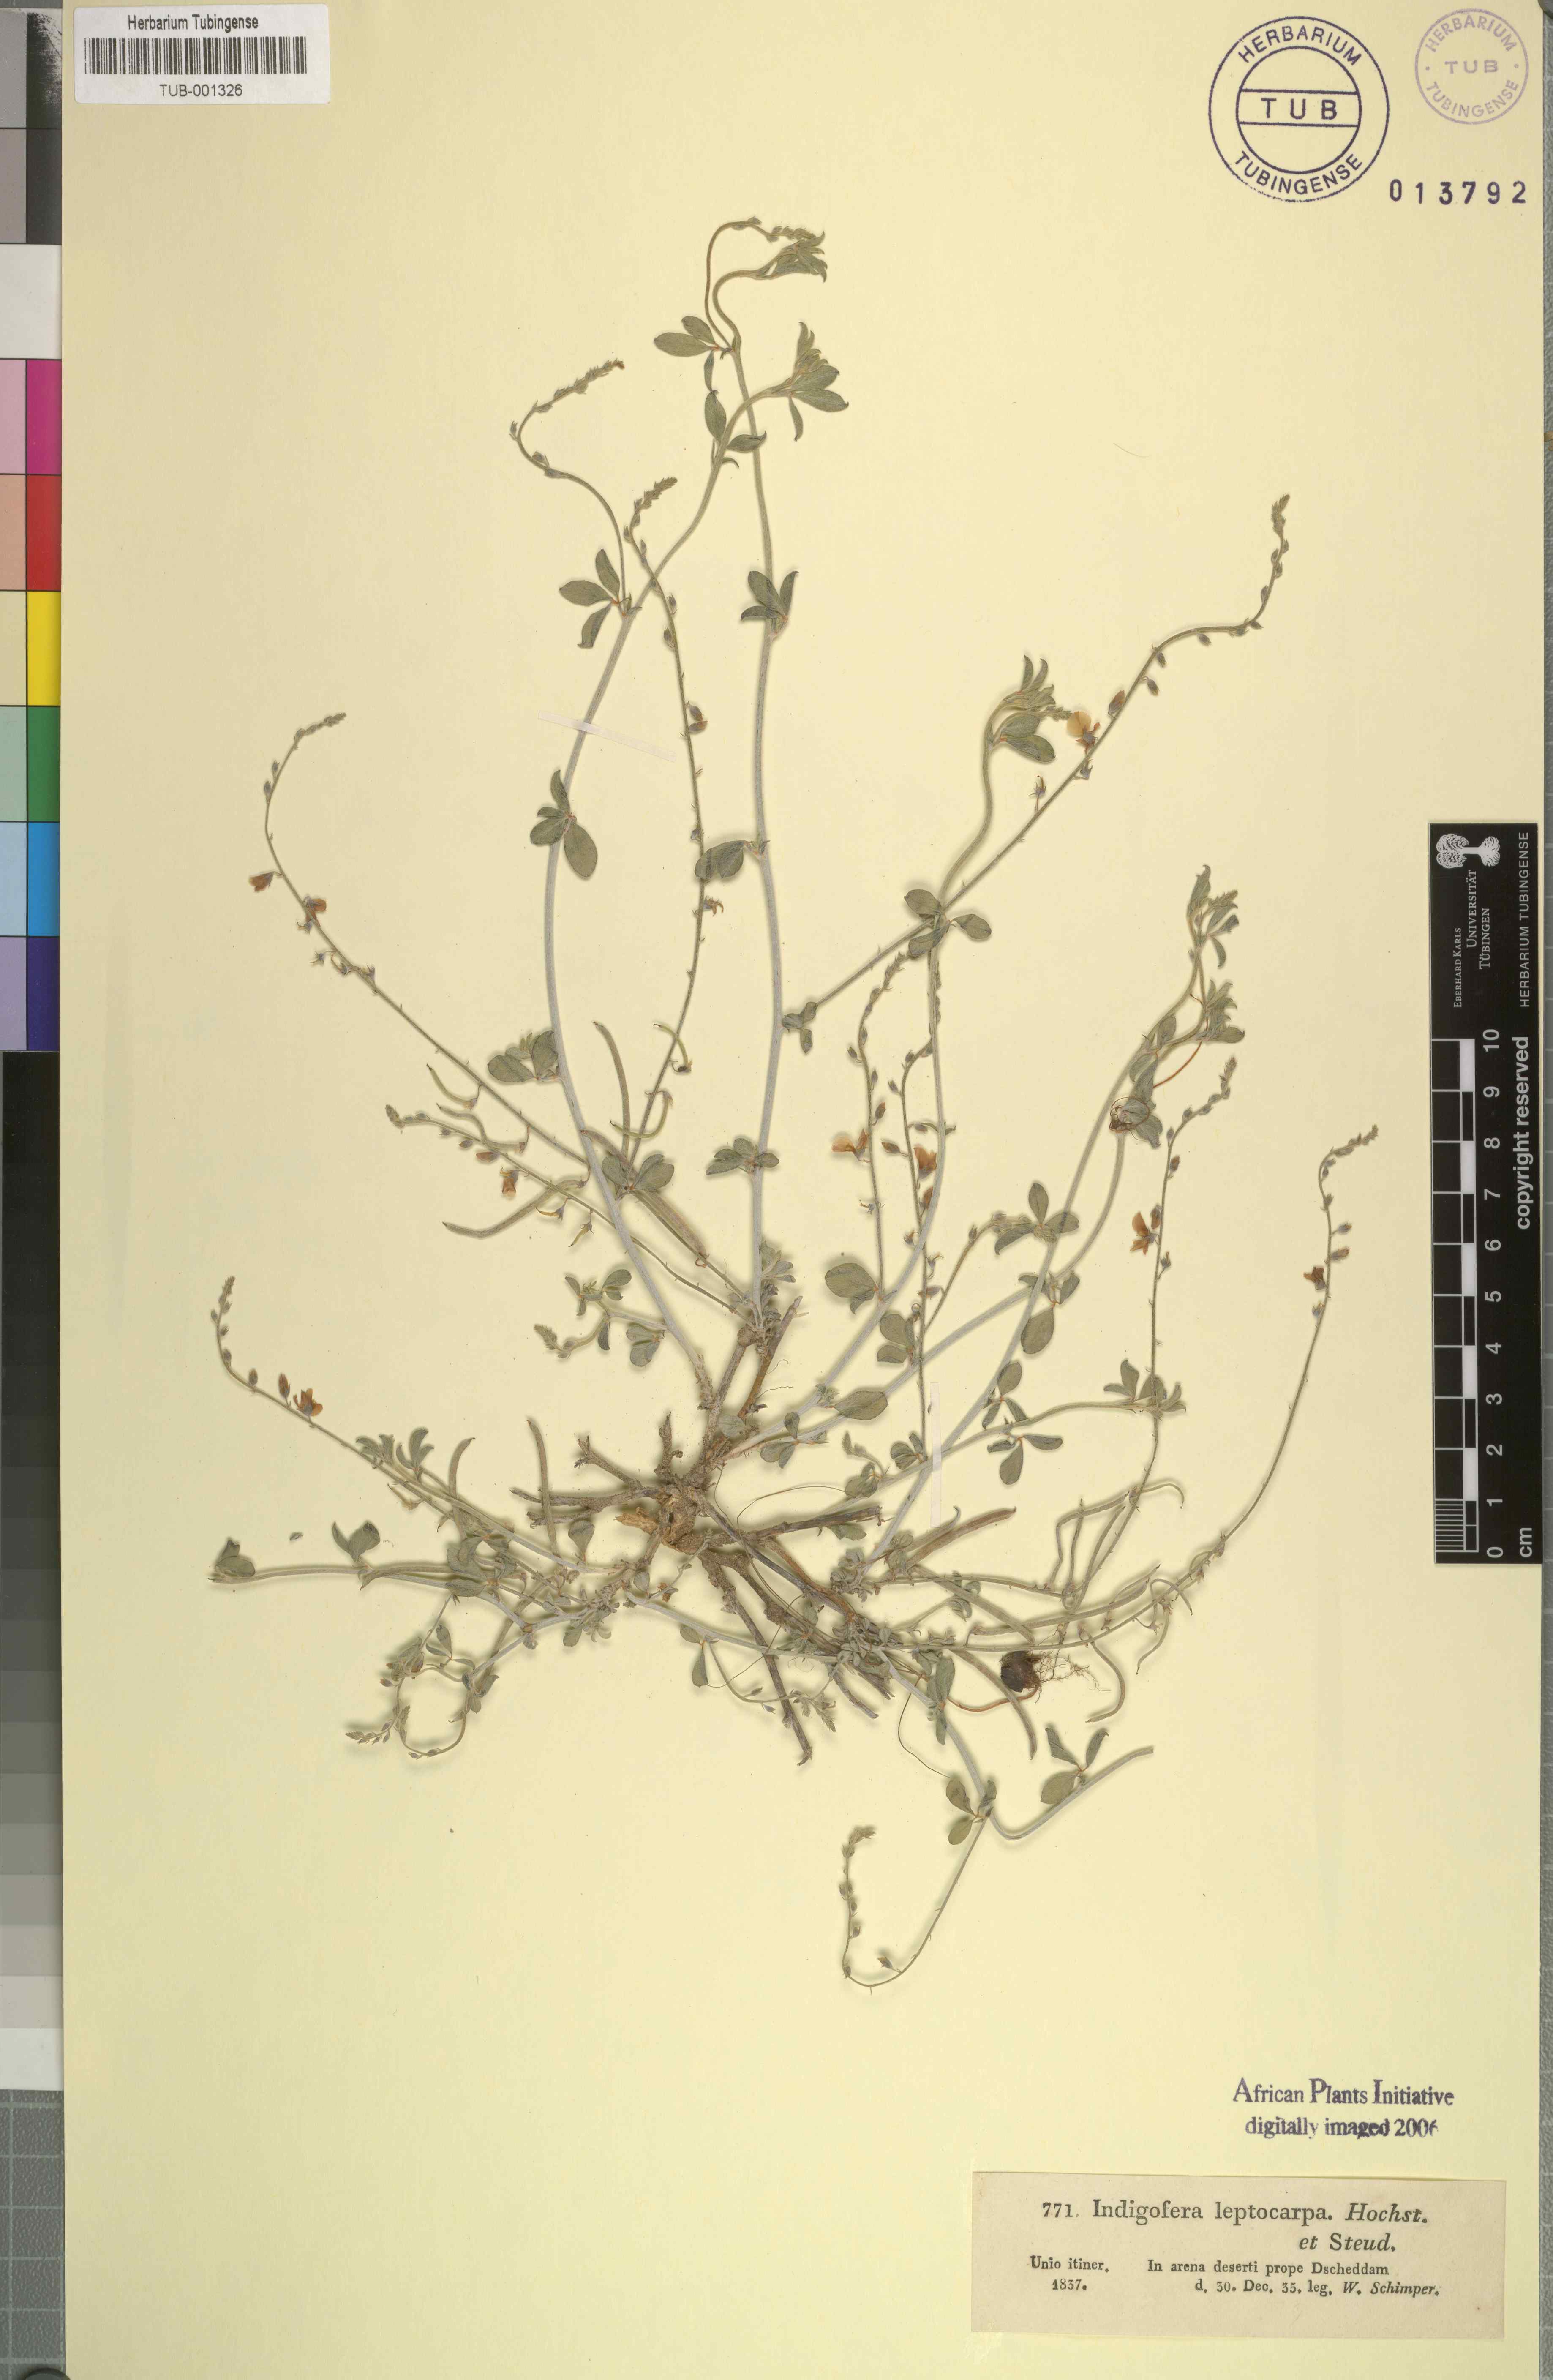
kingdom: Plantae
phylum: Tracheophyta
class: Magnoliopsida
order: Fabales
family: Fabaceae
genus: Microcharis
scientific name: Microcharis disjuncta
